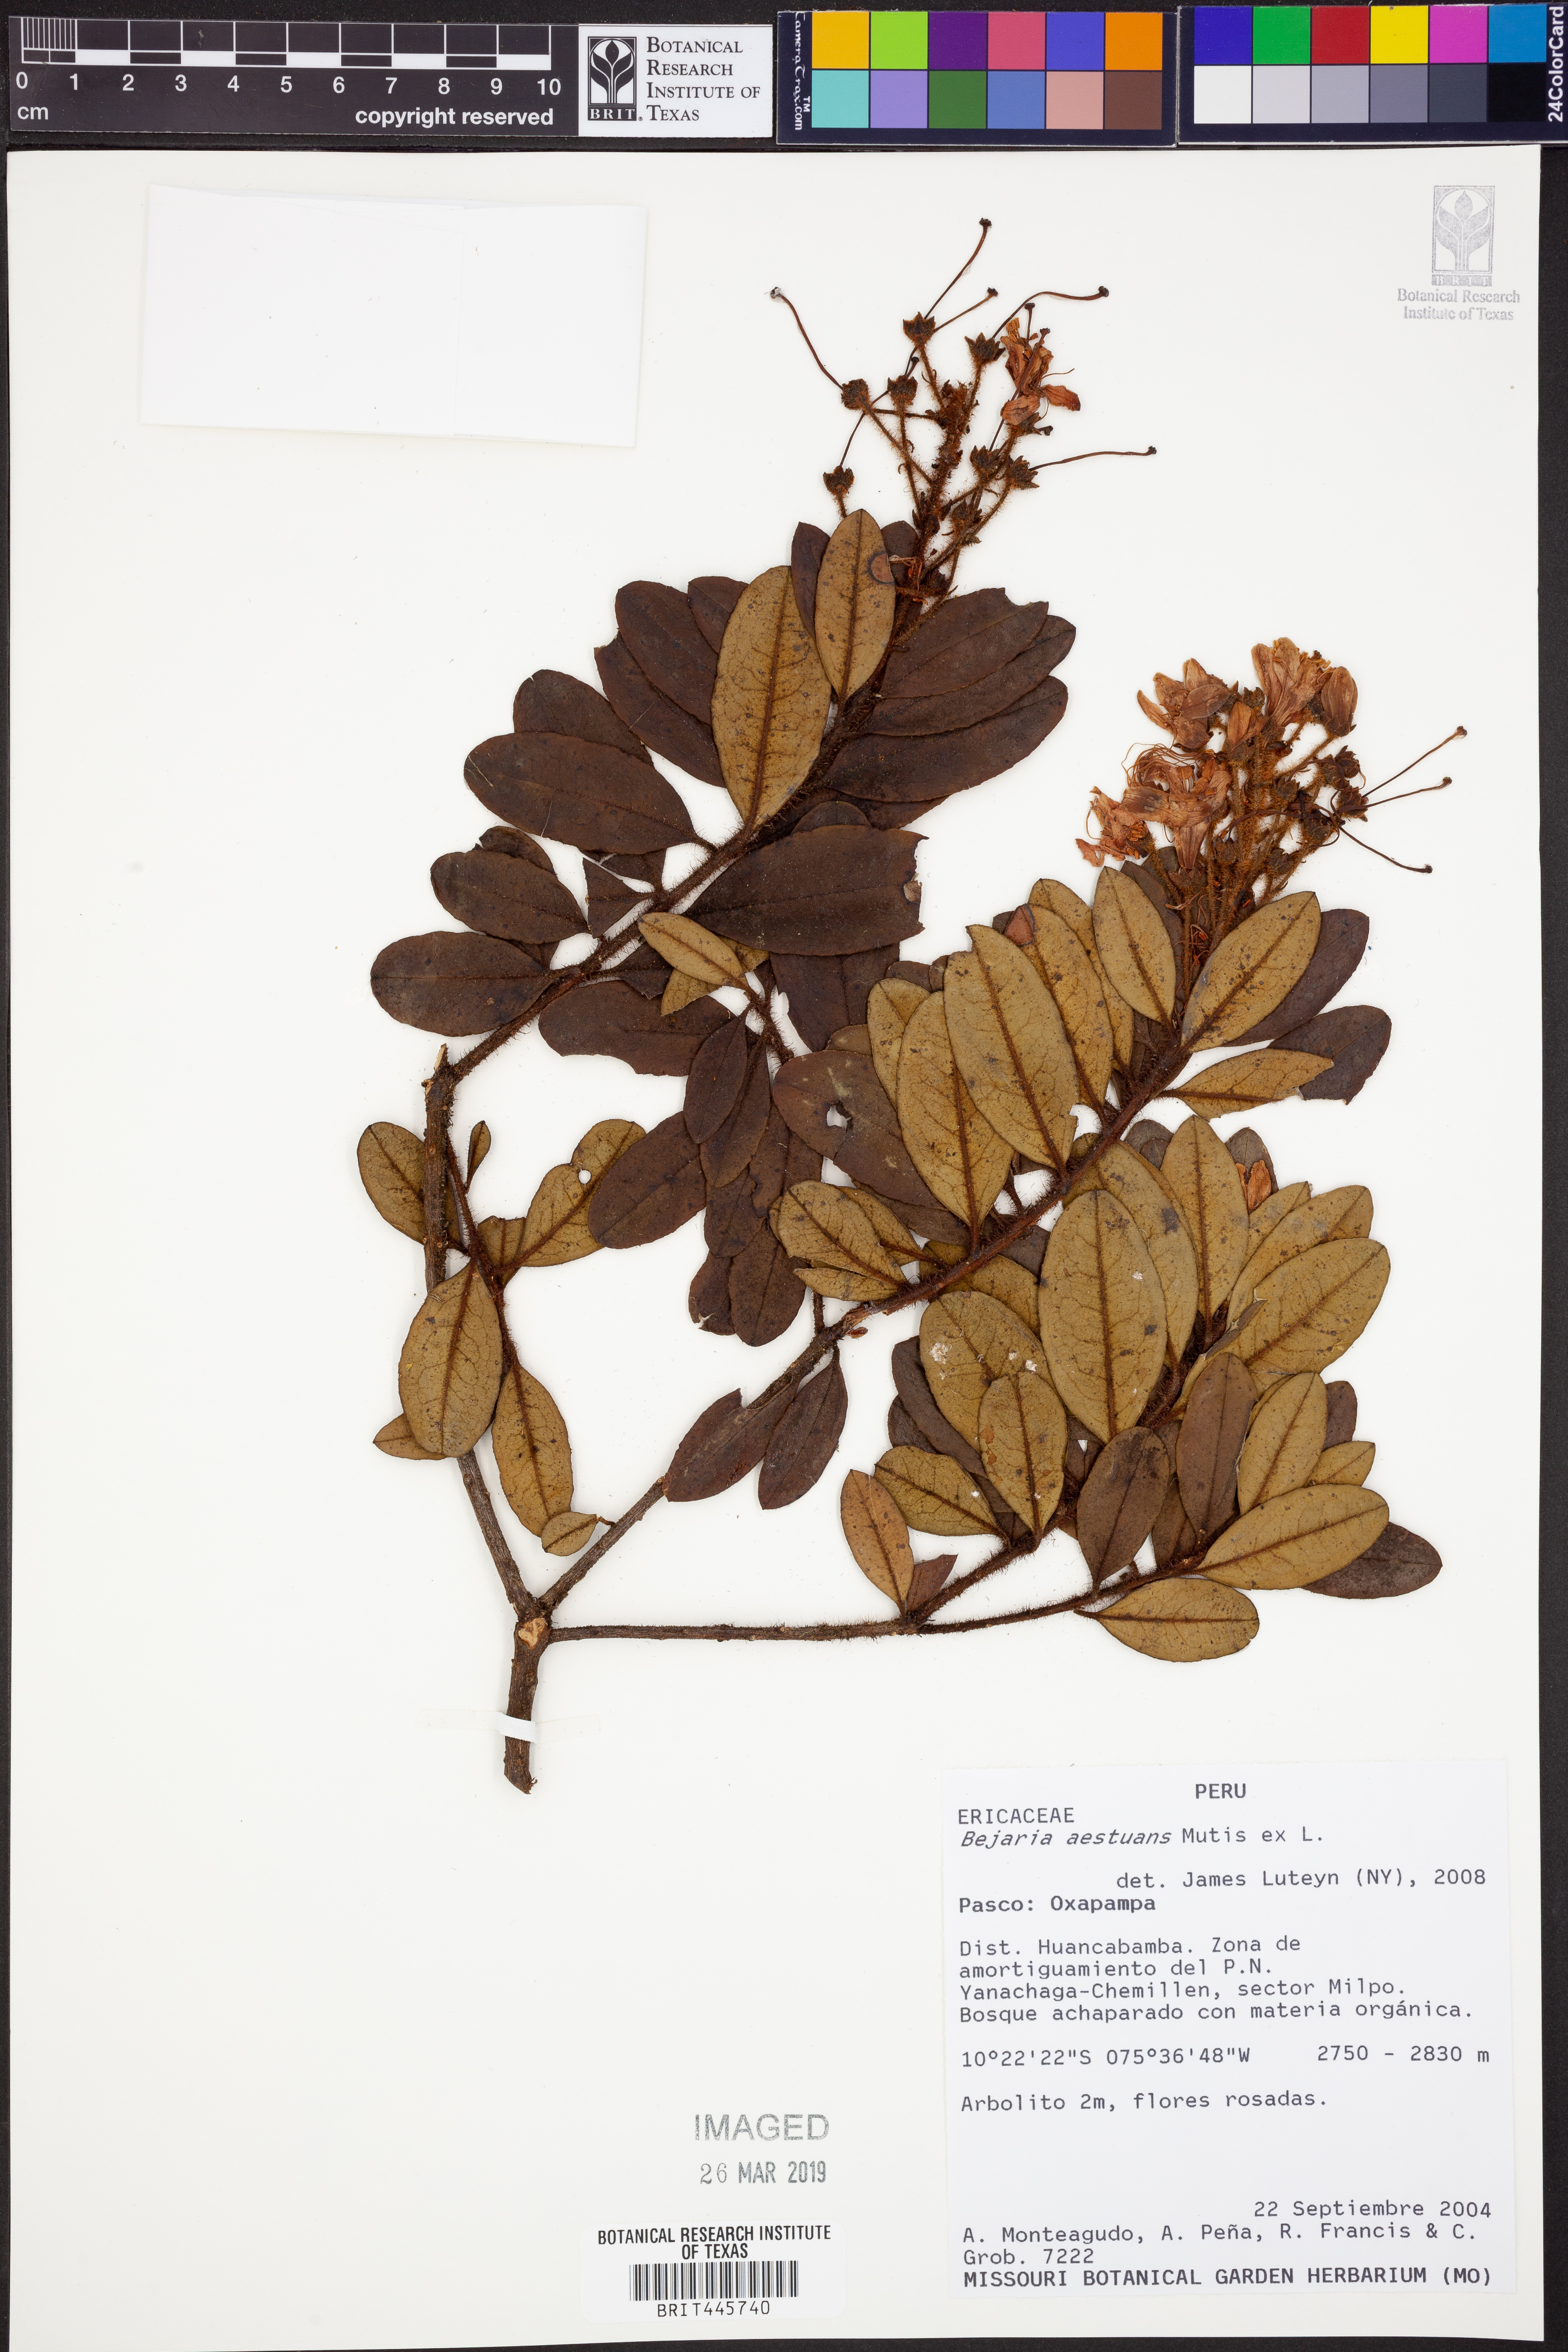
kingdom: Plantae
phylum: Tracheophyta
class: Magnoliopsida
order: Ericales
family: Ericaceae
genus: Bejaria
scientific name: Bejaria aestuans
